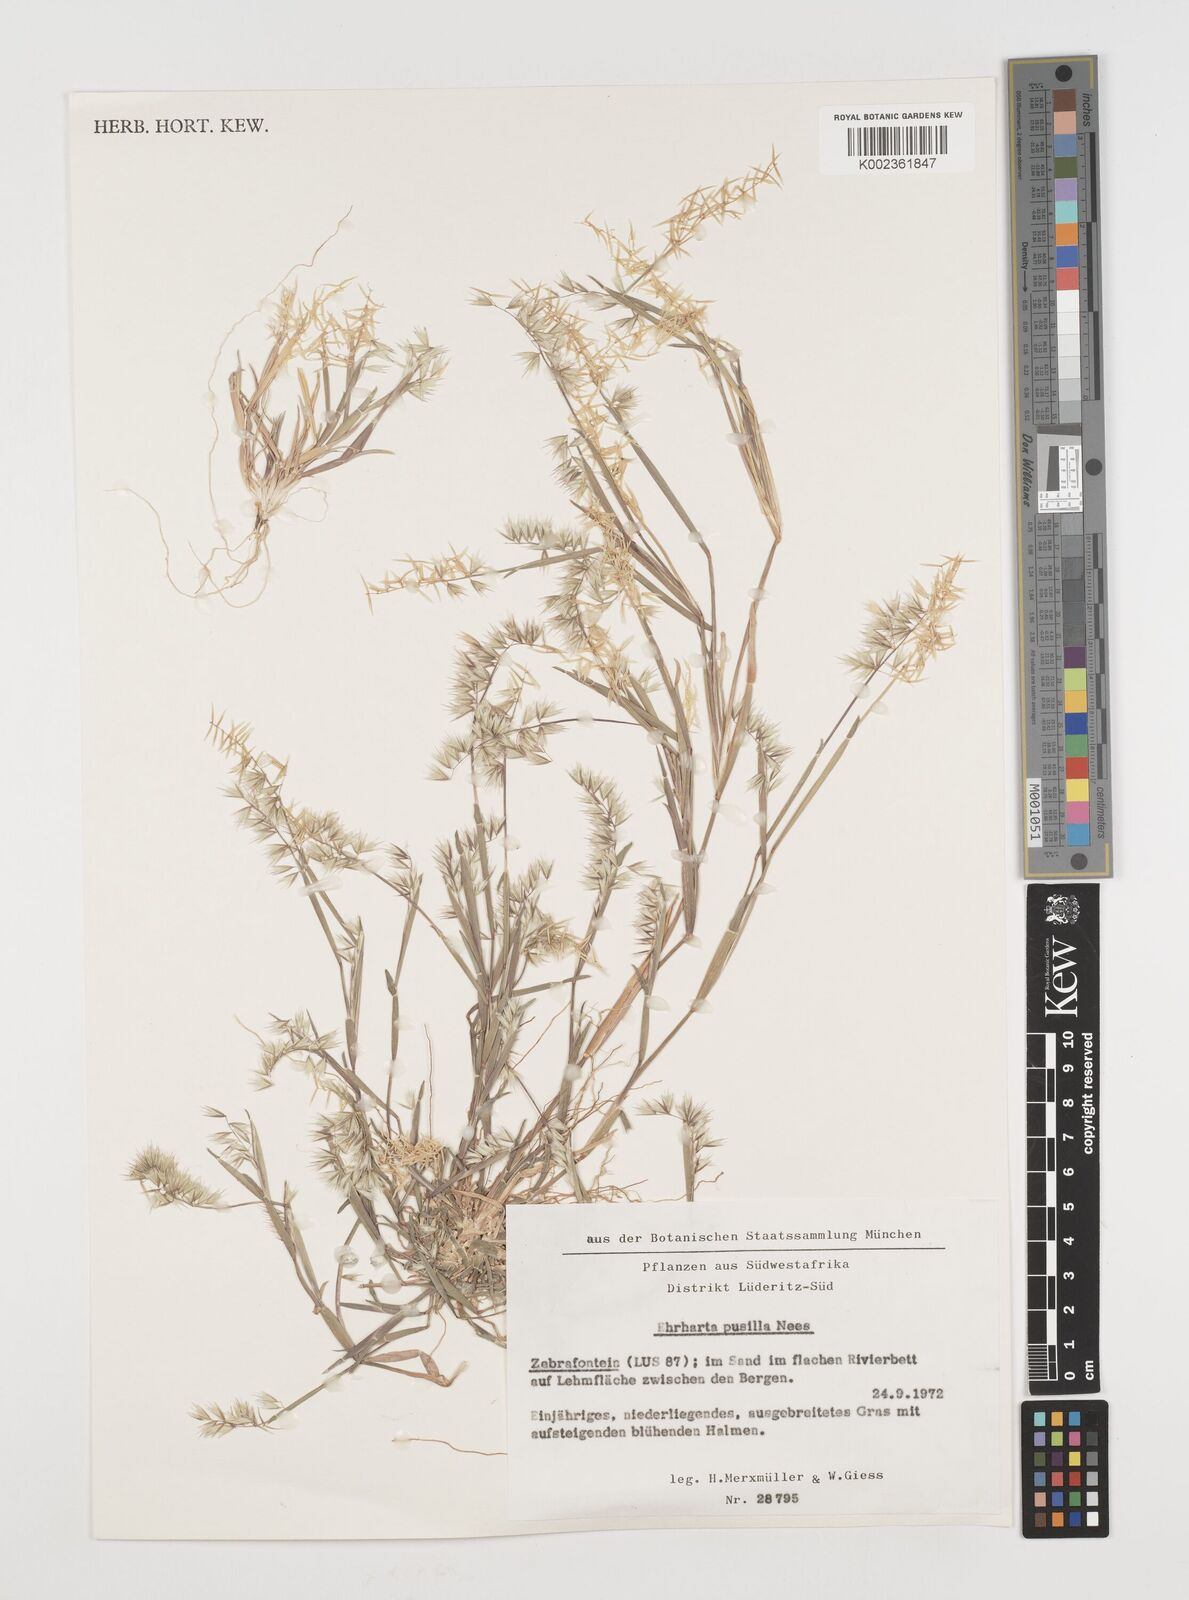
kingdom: Plantae
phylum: Tracheophyta
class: Liliopsida
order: Poales
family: Poaceae
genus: Ehrharta
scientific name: Ehrharta pusilla
